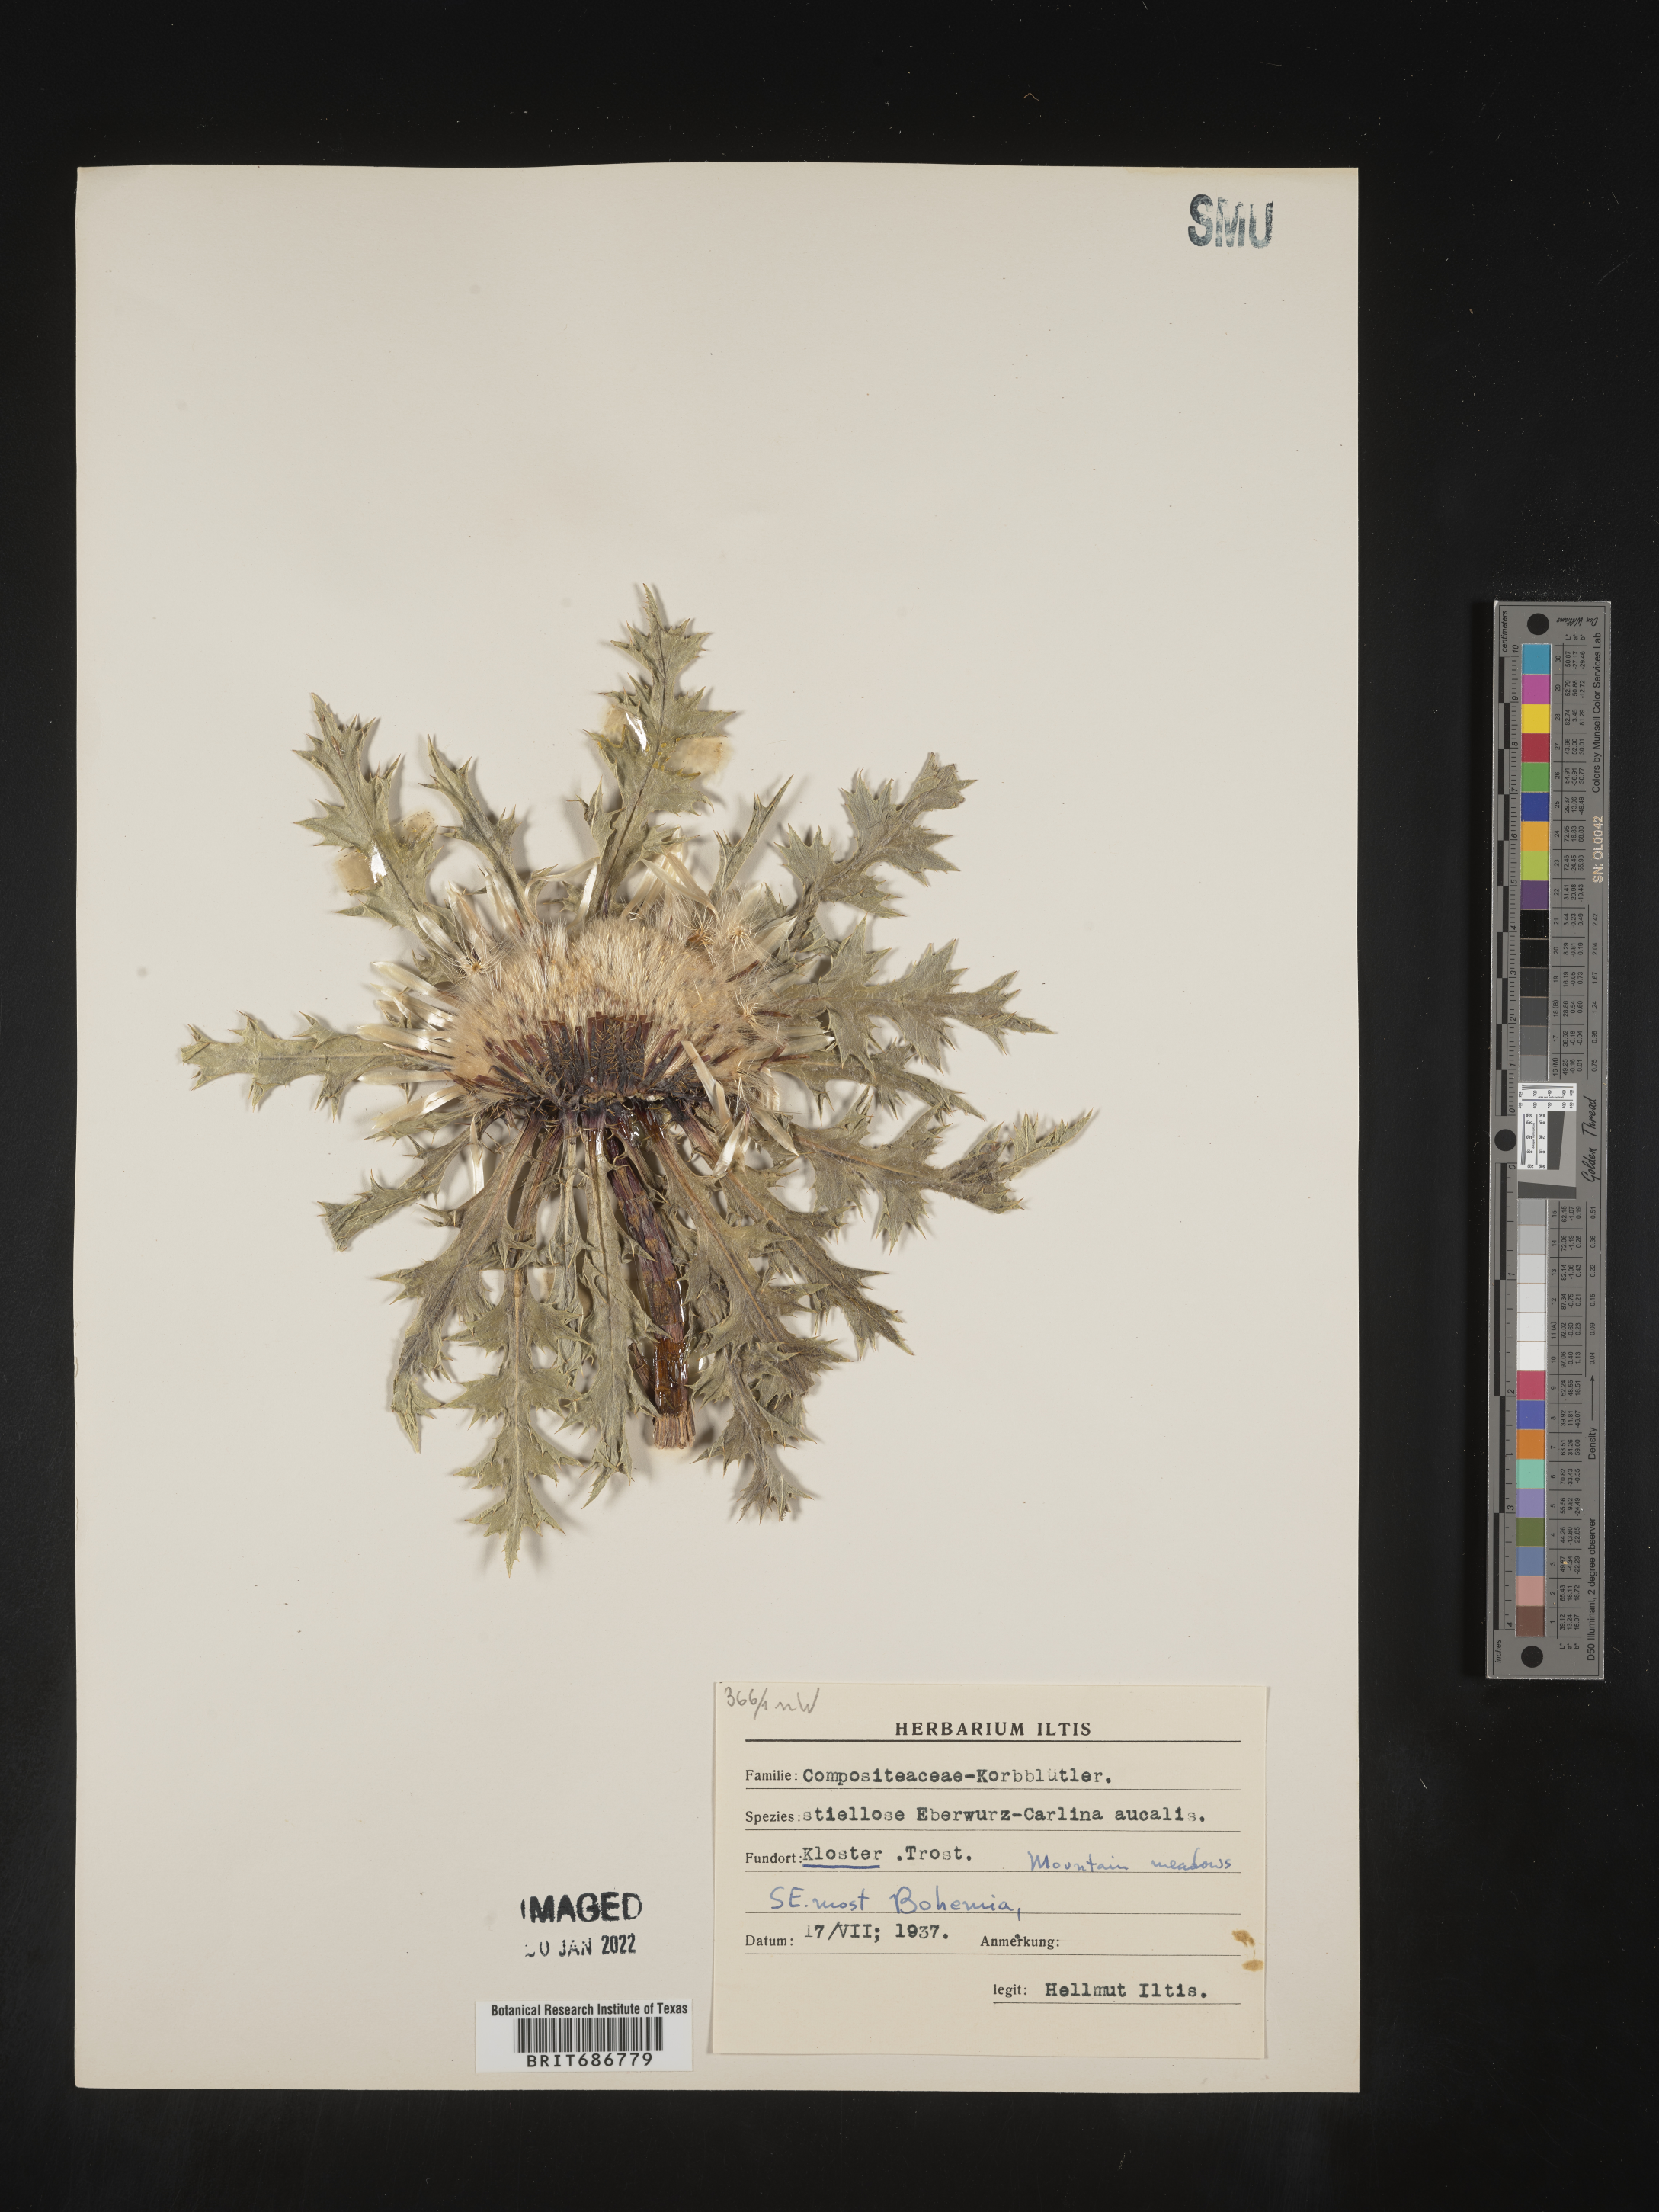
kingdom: Plantae
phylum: Tracheophyta
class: Magnoliopsida
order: Asterales
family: Asteraceae
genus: Carlina
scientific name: Carlina
